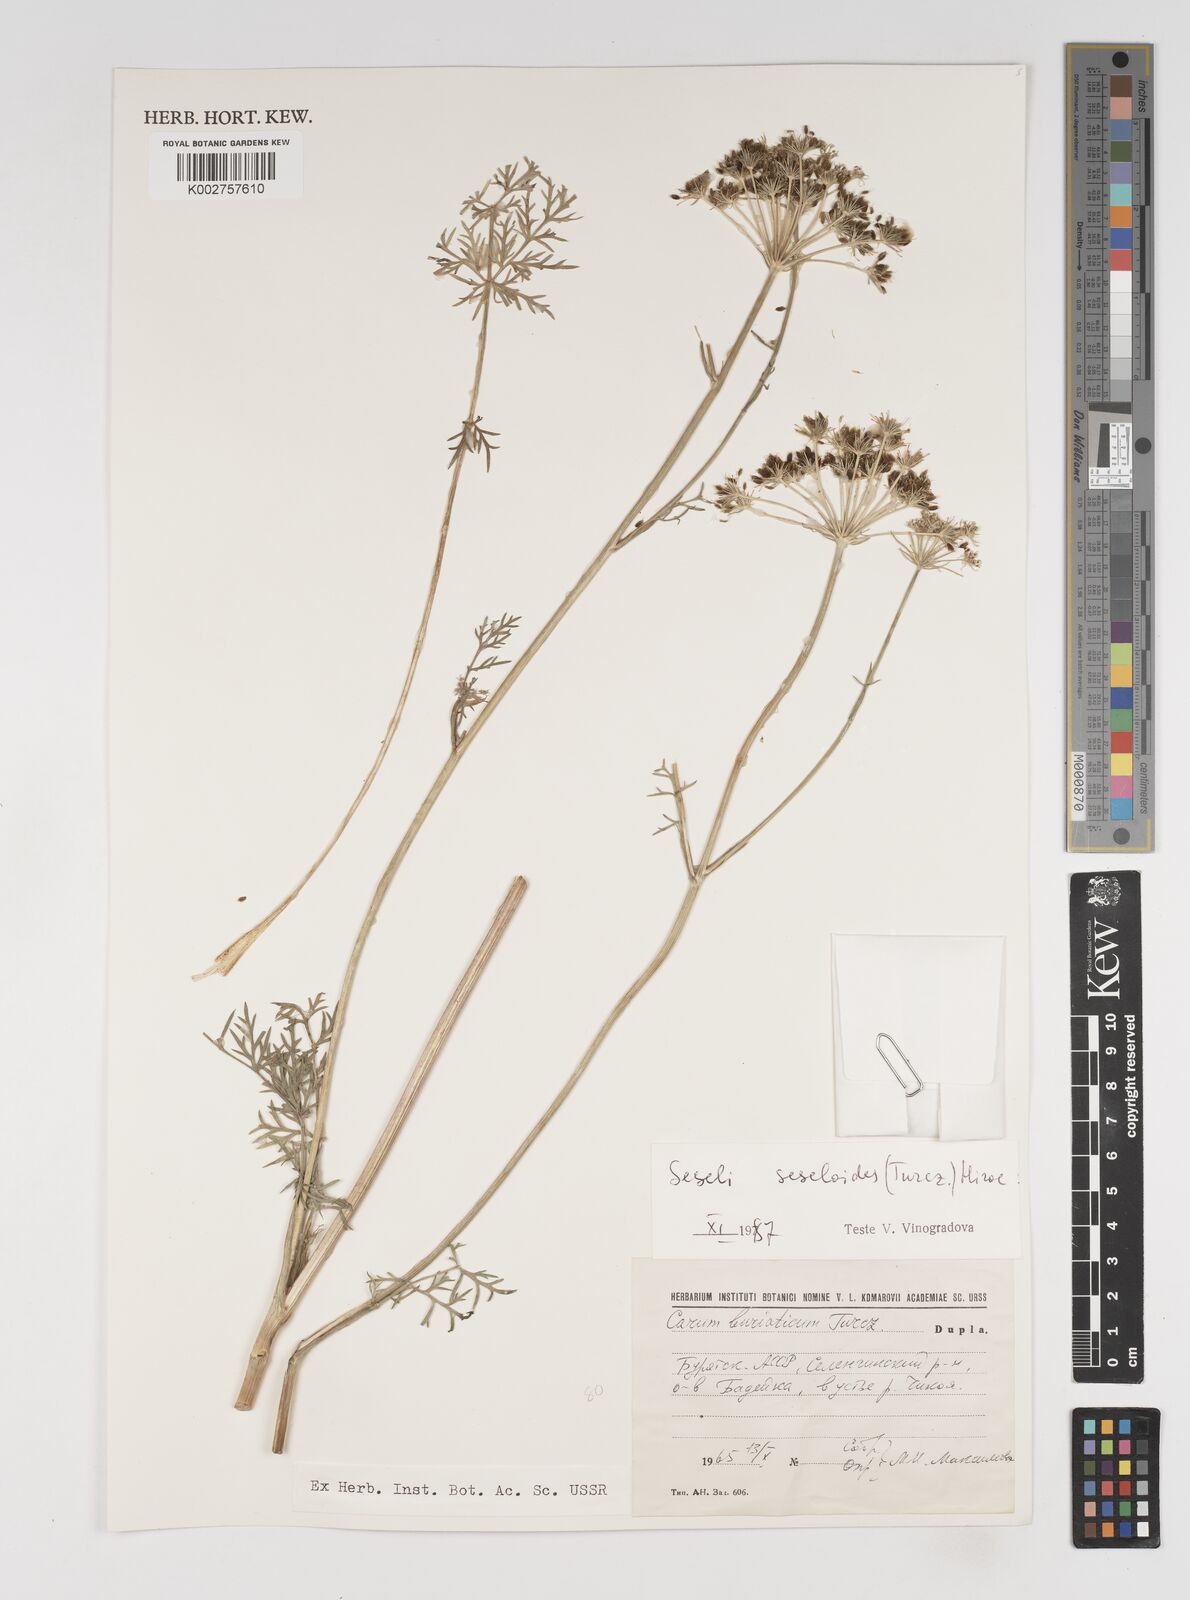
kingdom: Plantae
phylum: Tracheophyta
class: Magnoliopsida
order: Apiales
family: Apiaceae
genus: Seseli
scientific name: Seseli seseloides
